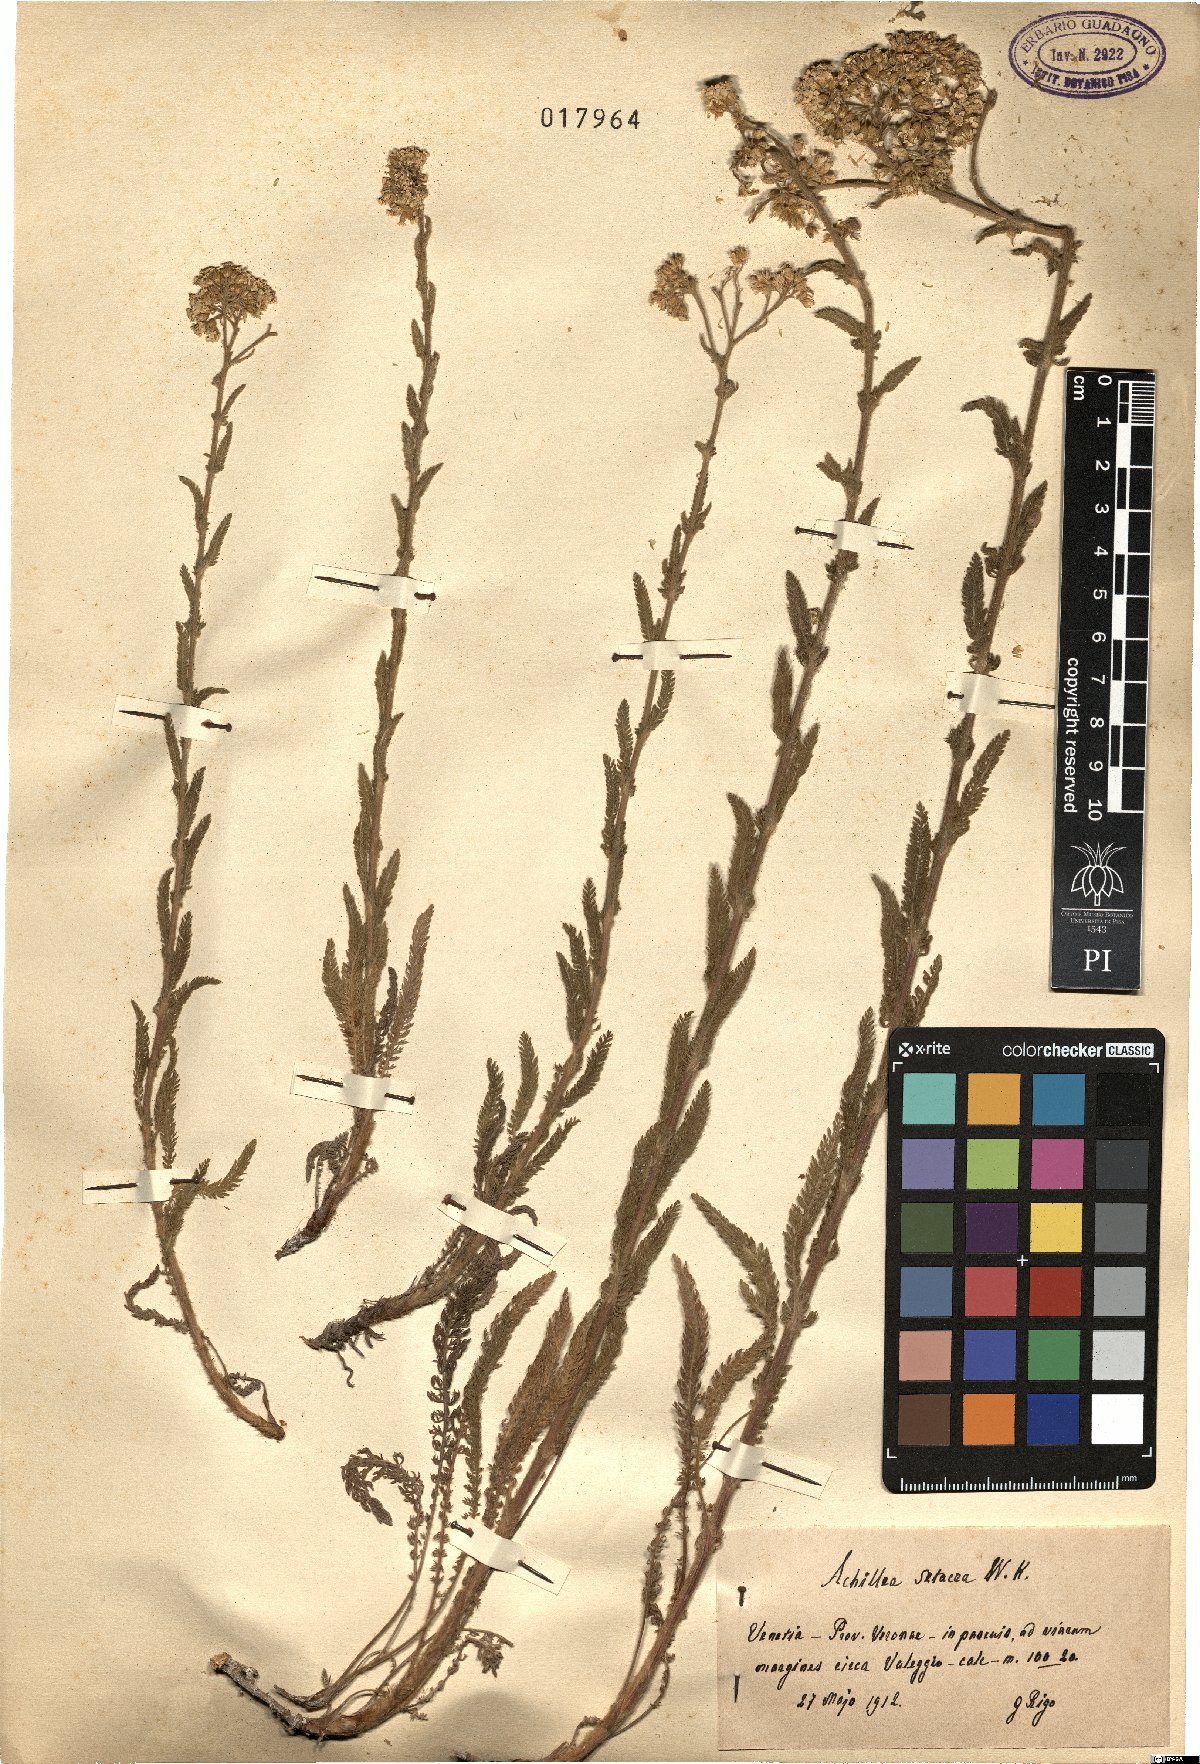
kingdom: Plantae
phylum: Tracheophyta
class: Magnoliopsida
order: Asterales
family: Asteraceae
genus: Achillea
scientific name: Achillea setacea
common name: Bristly yarrow
